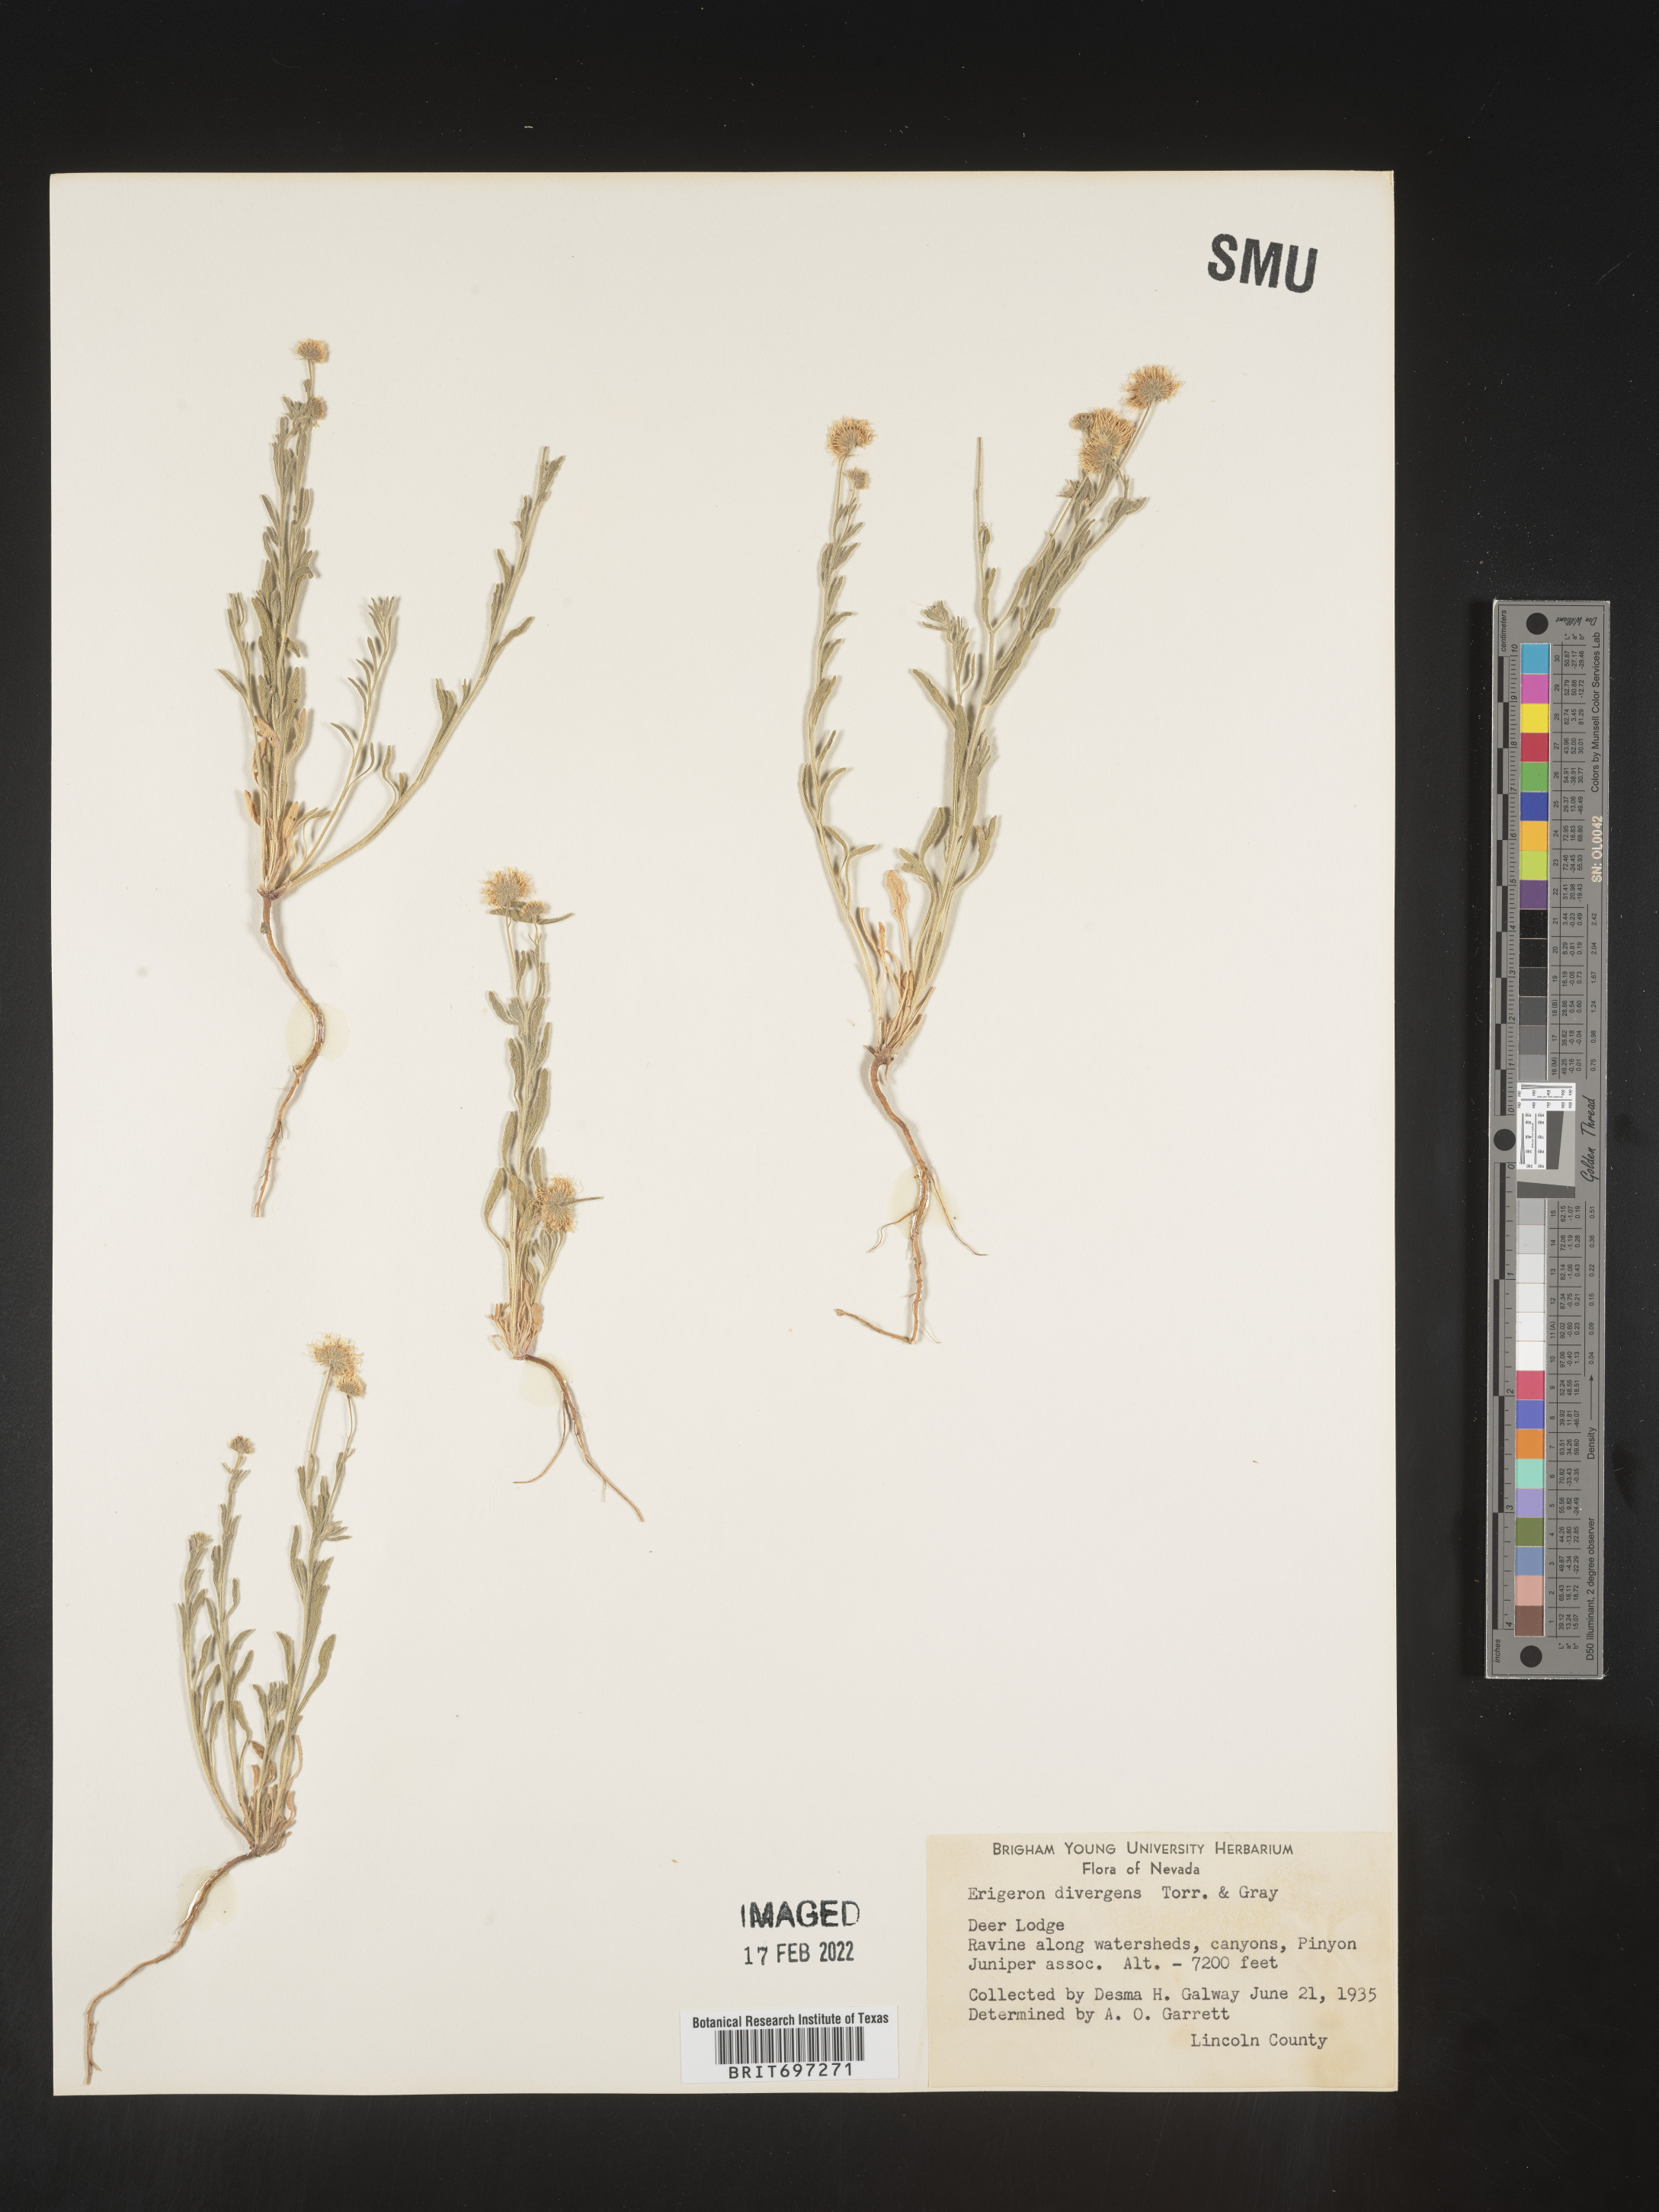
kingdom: Plantae
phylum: Tracheophyta
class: Magnoliopsida
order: Asterales
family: Asteraceae
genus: Erigeron
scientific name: Erigeron divergens
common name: Diffuse fleabane
